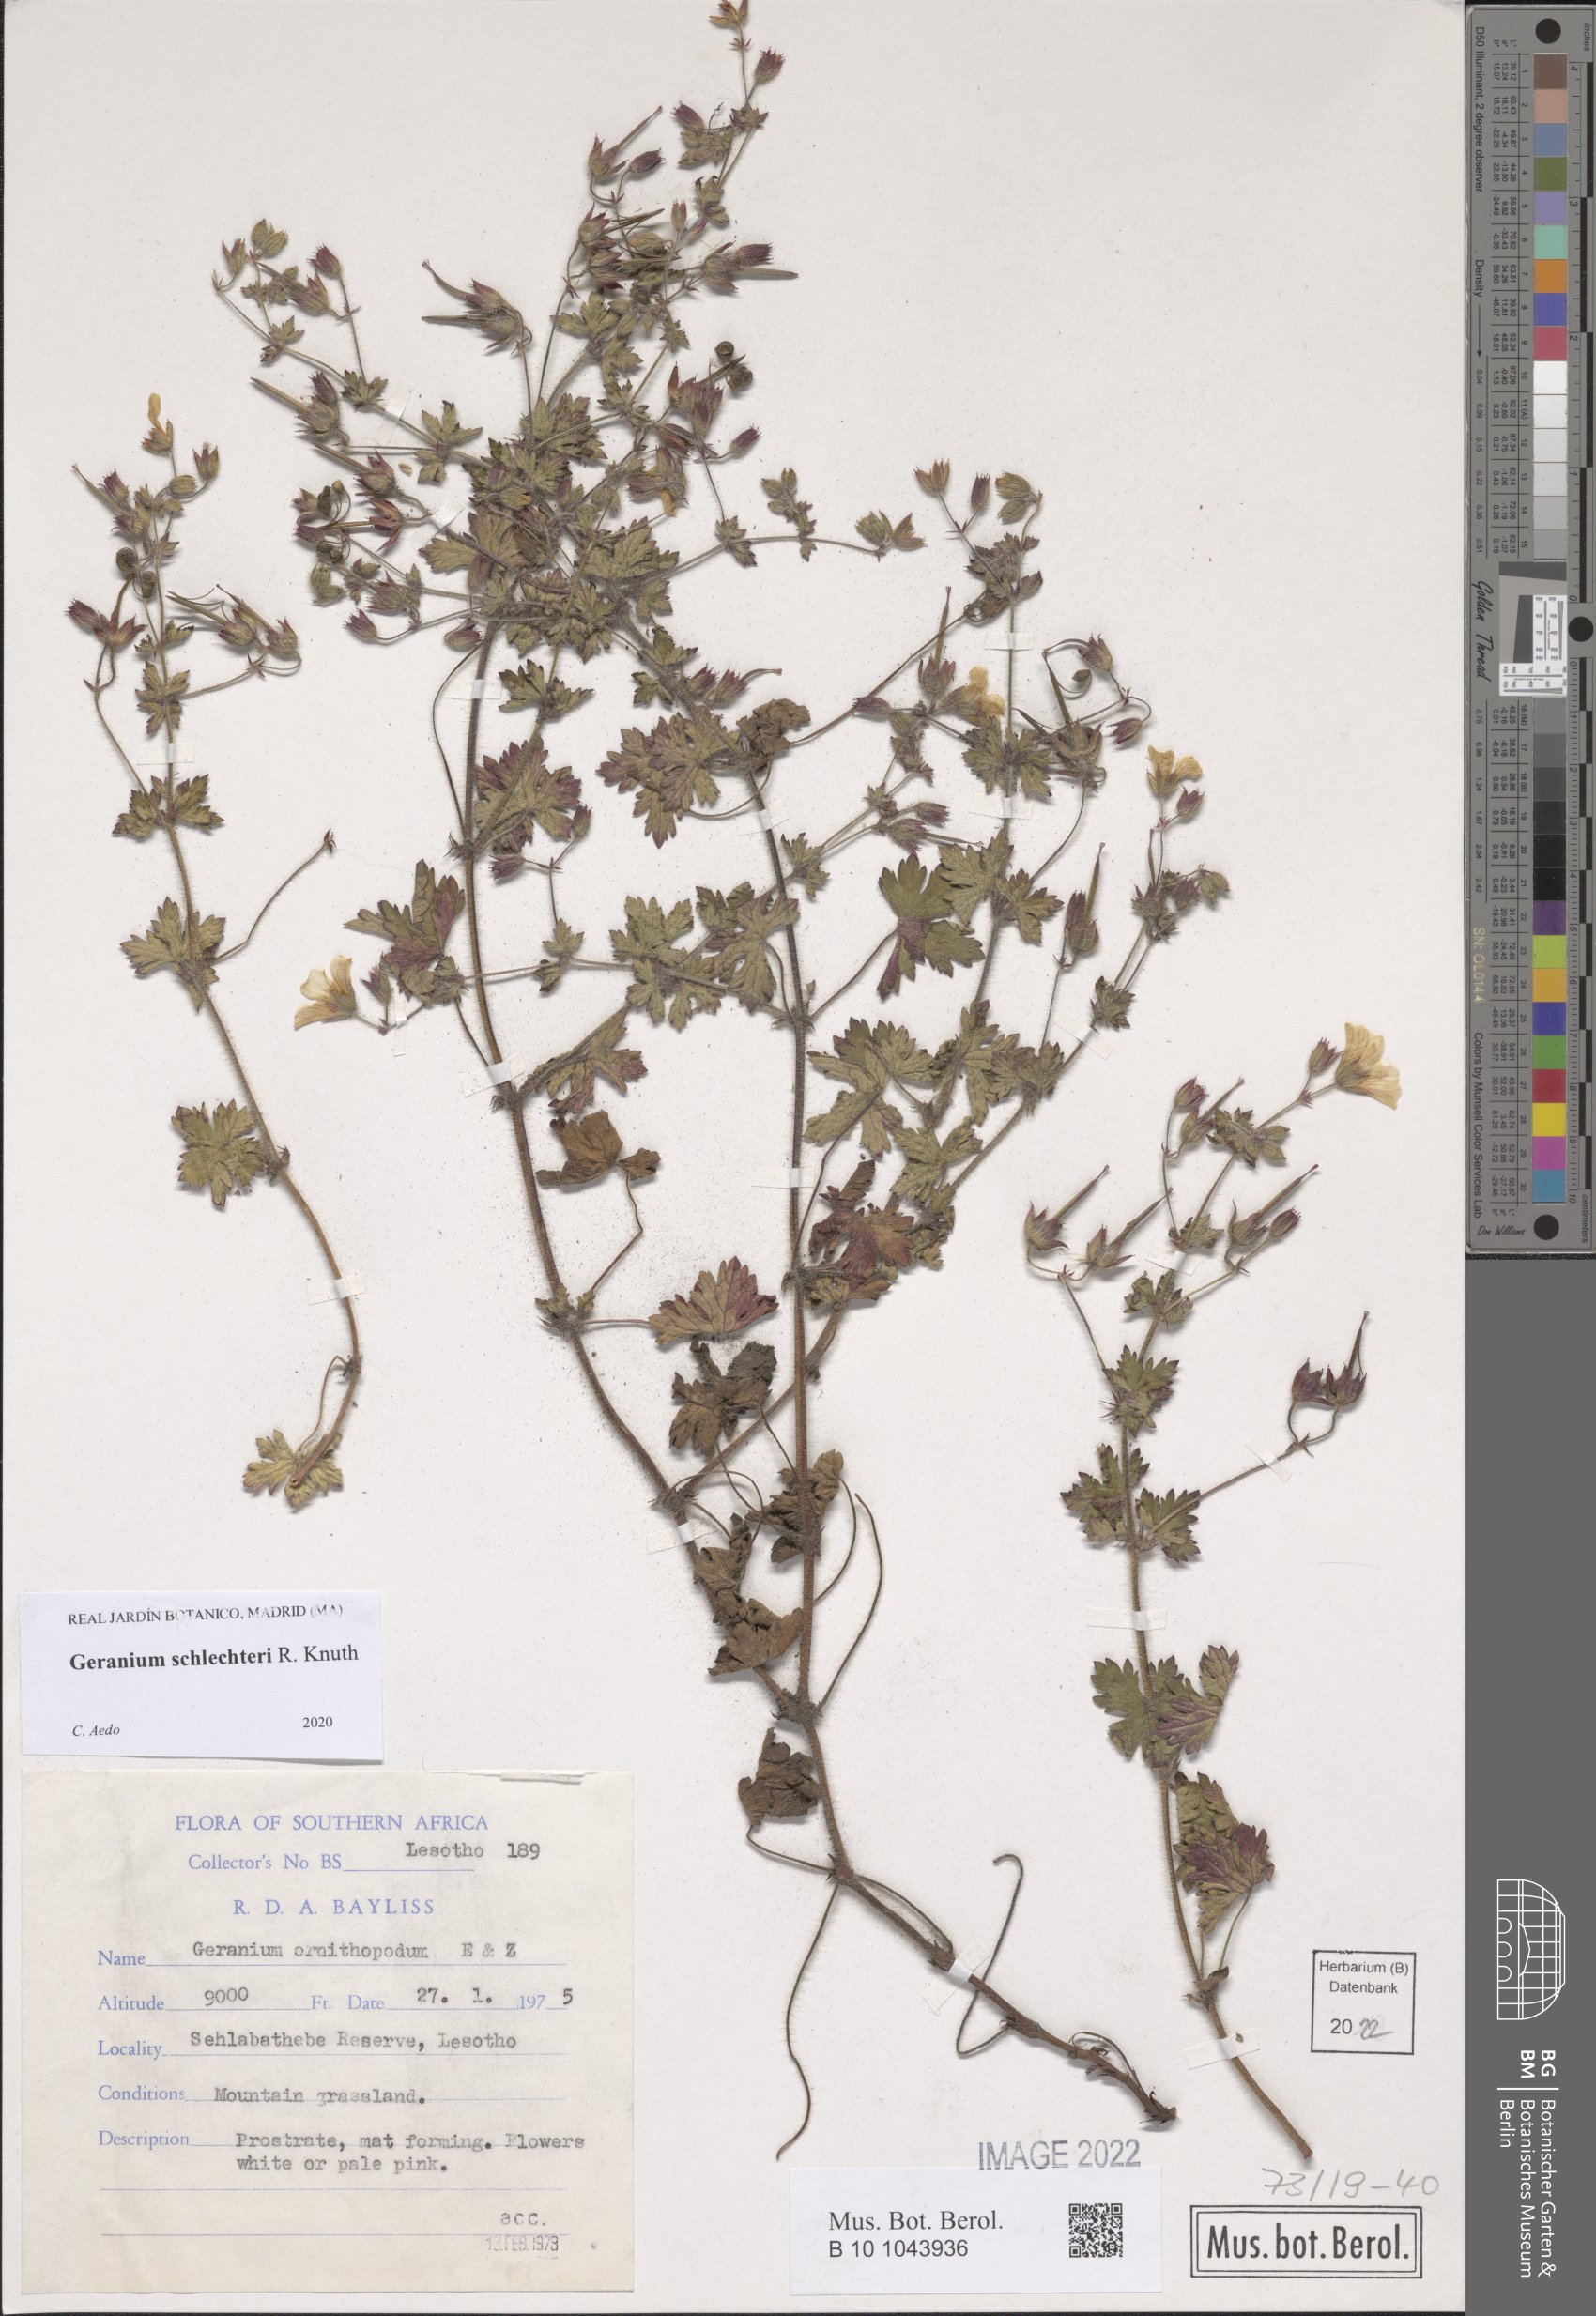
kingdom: Plantae
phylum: Tracheophyta
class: Magnoliopsida
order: Geraniales
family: Geraniaceae
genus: Geranium
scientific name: Geranium schlechteri
